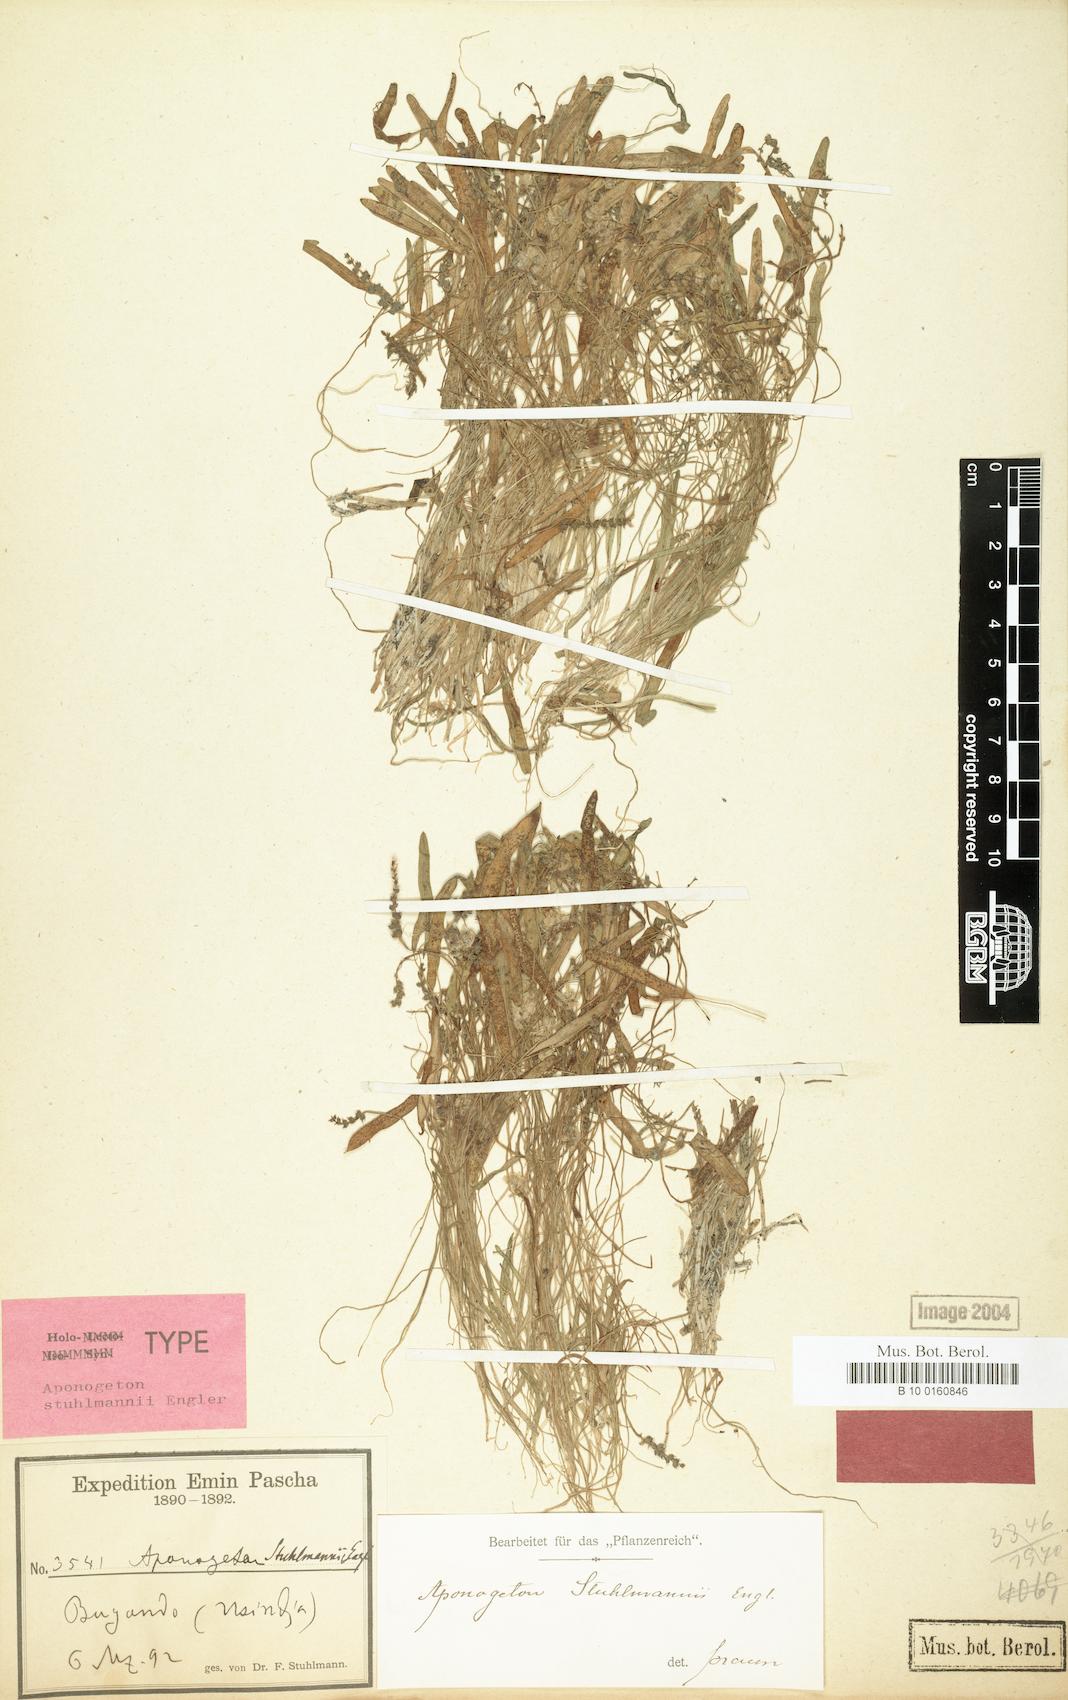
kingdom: Plantae
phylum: Tracheophyta
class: Liliopsida
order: Alismatales
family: Aponogetonaceae
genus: Aponogeton
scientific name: Aponogeton stuhlmannii
